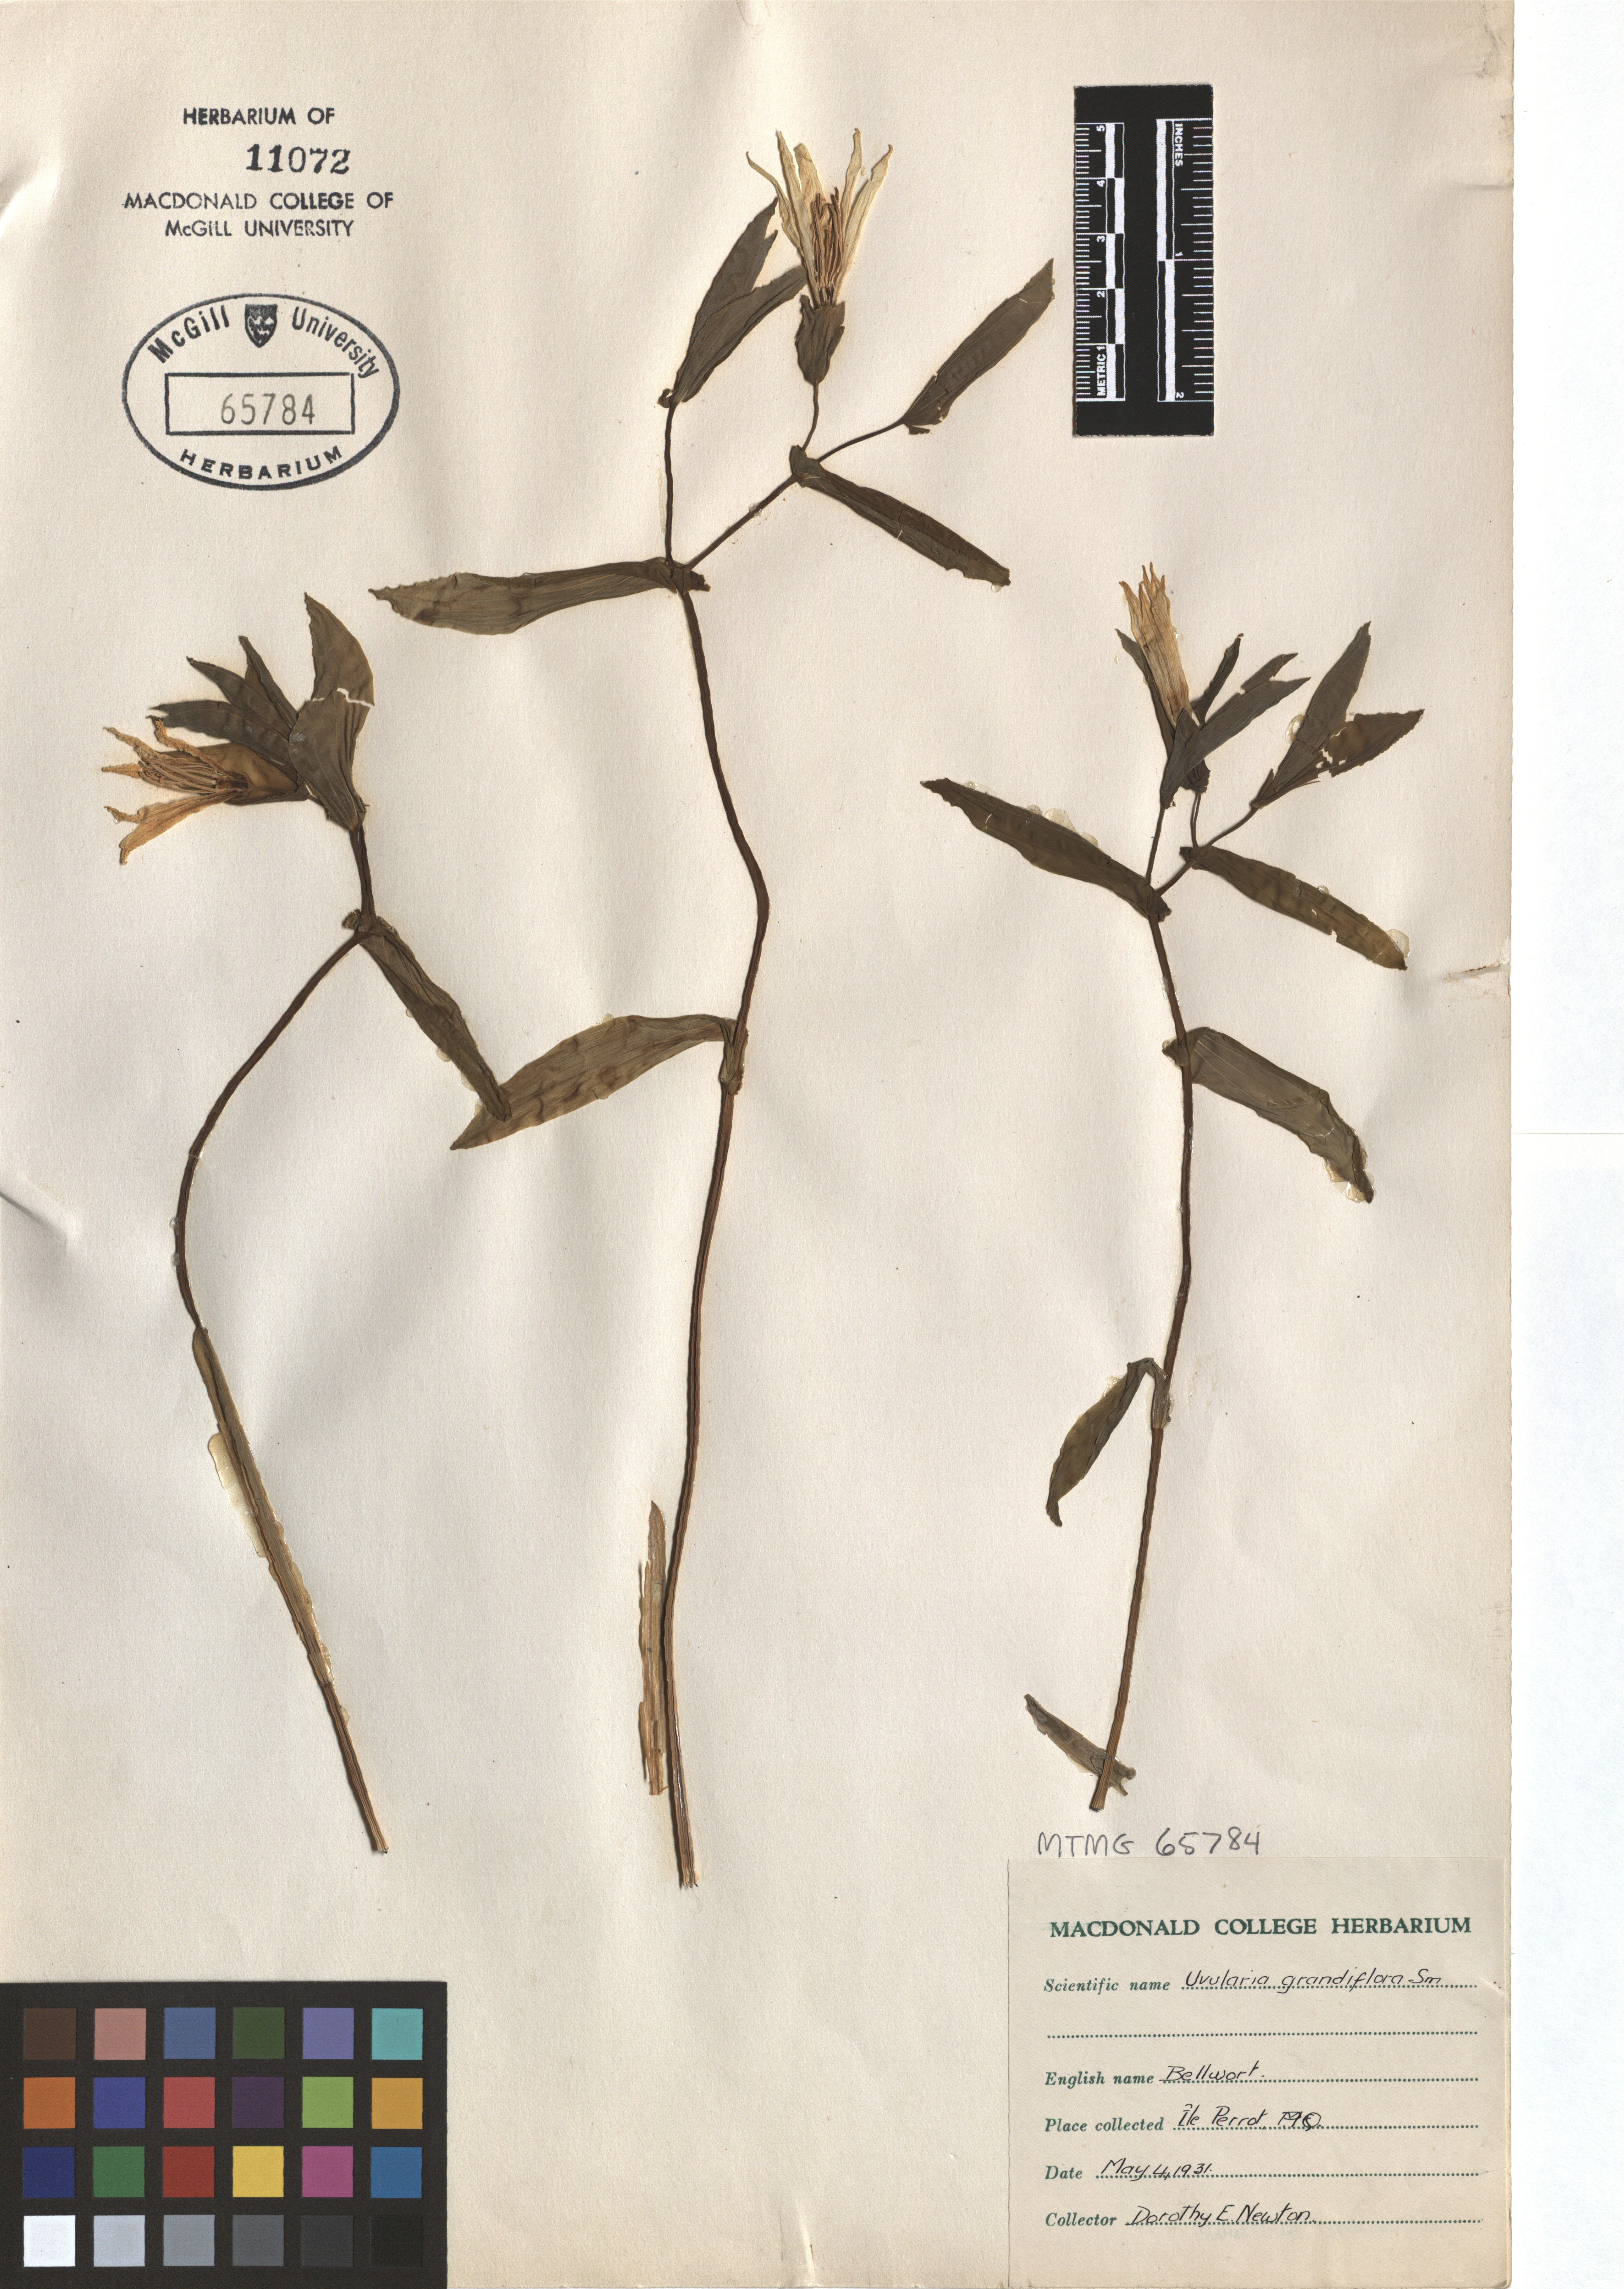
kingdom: Plantae
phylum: Tracheophyta
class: Liliopsida
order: Liliales
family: Colchicaceae
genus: Uvularia
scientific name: Uvularia grandiflora
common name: Bellwort
